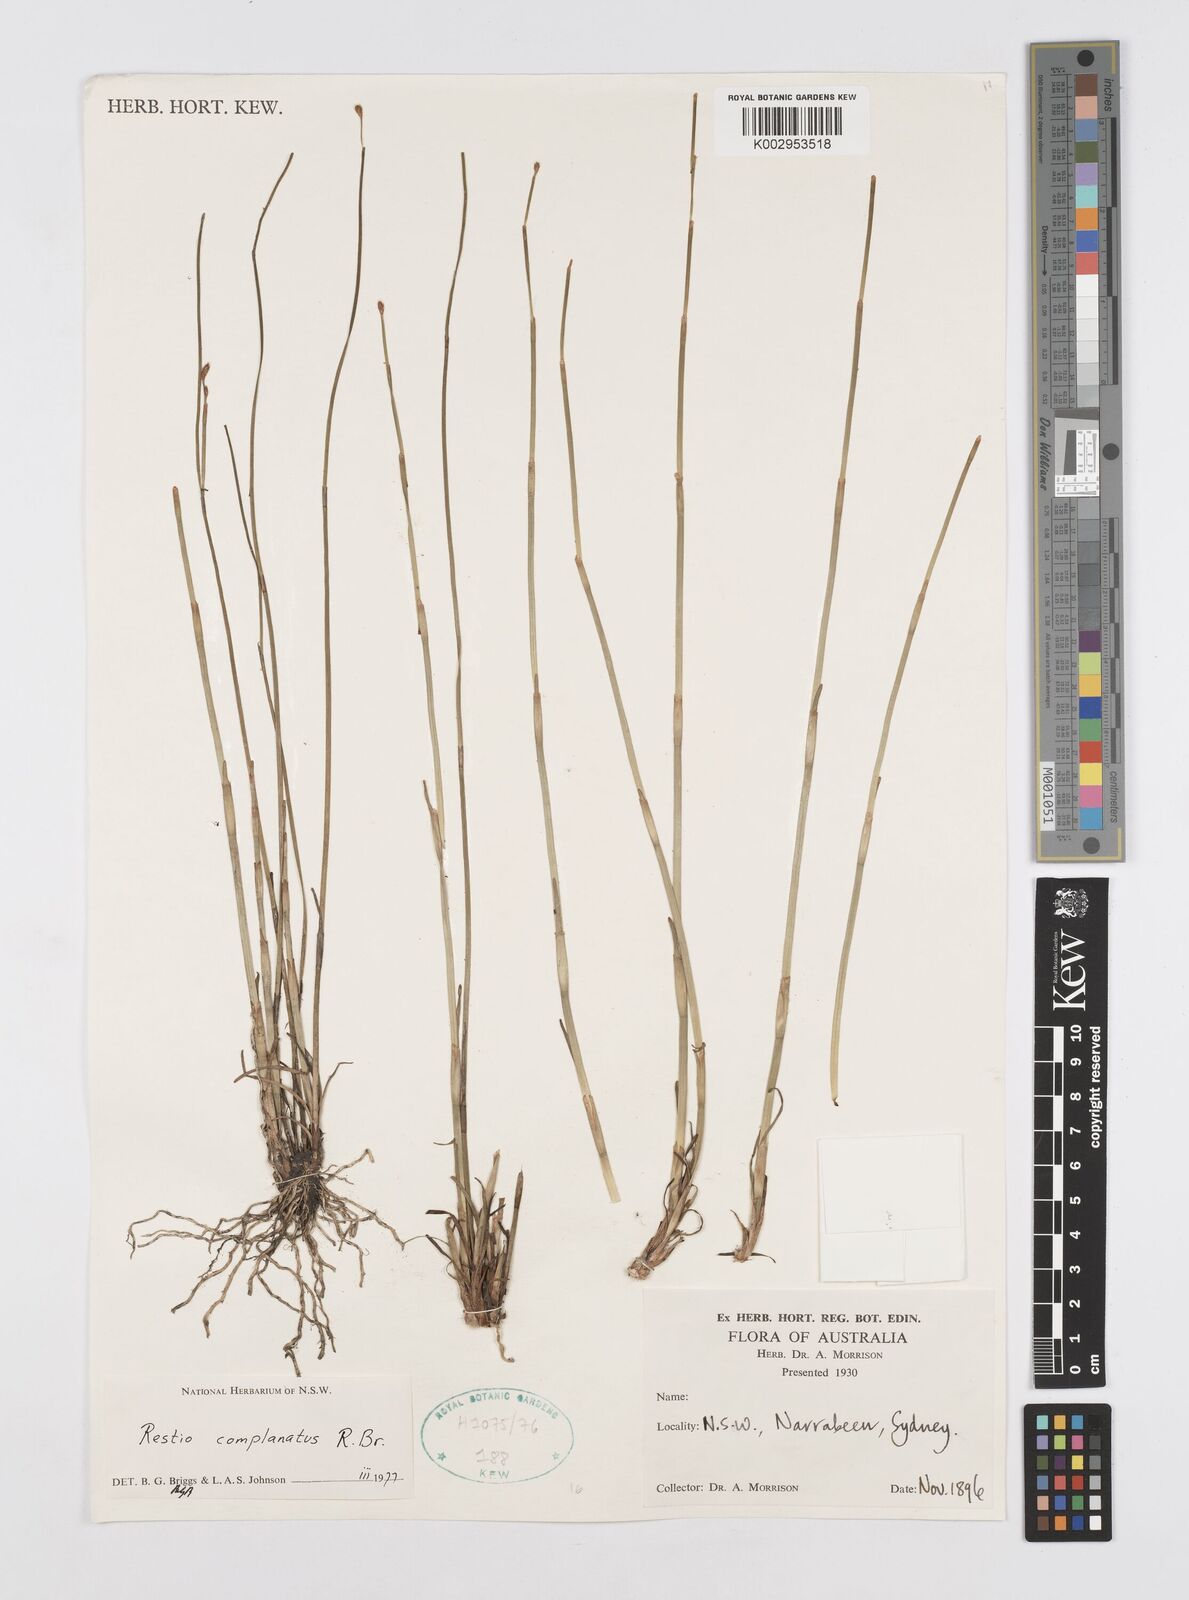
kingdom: Plantae
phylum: Tracheophyta
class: Liliopsida
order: Poales
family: Restionaceae
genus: Eurychorda
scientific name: Eurychorda complanata
